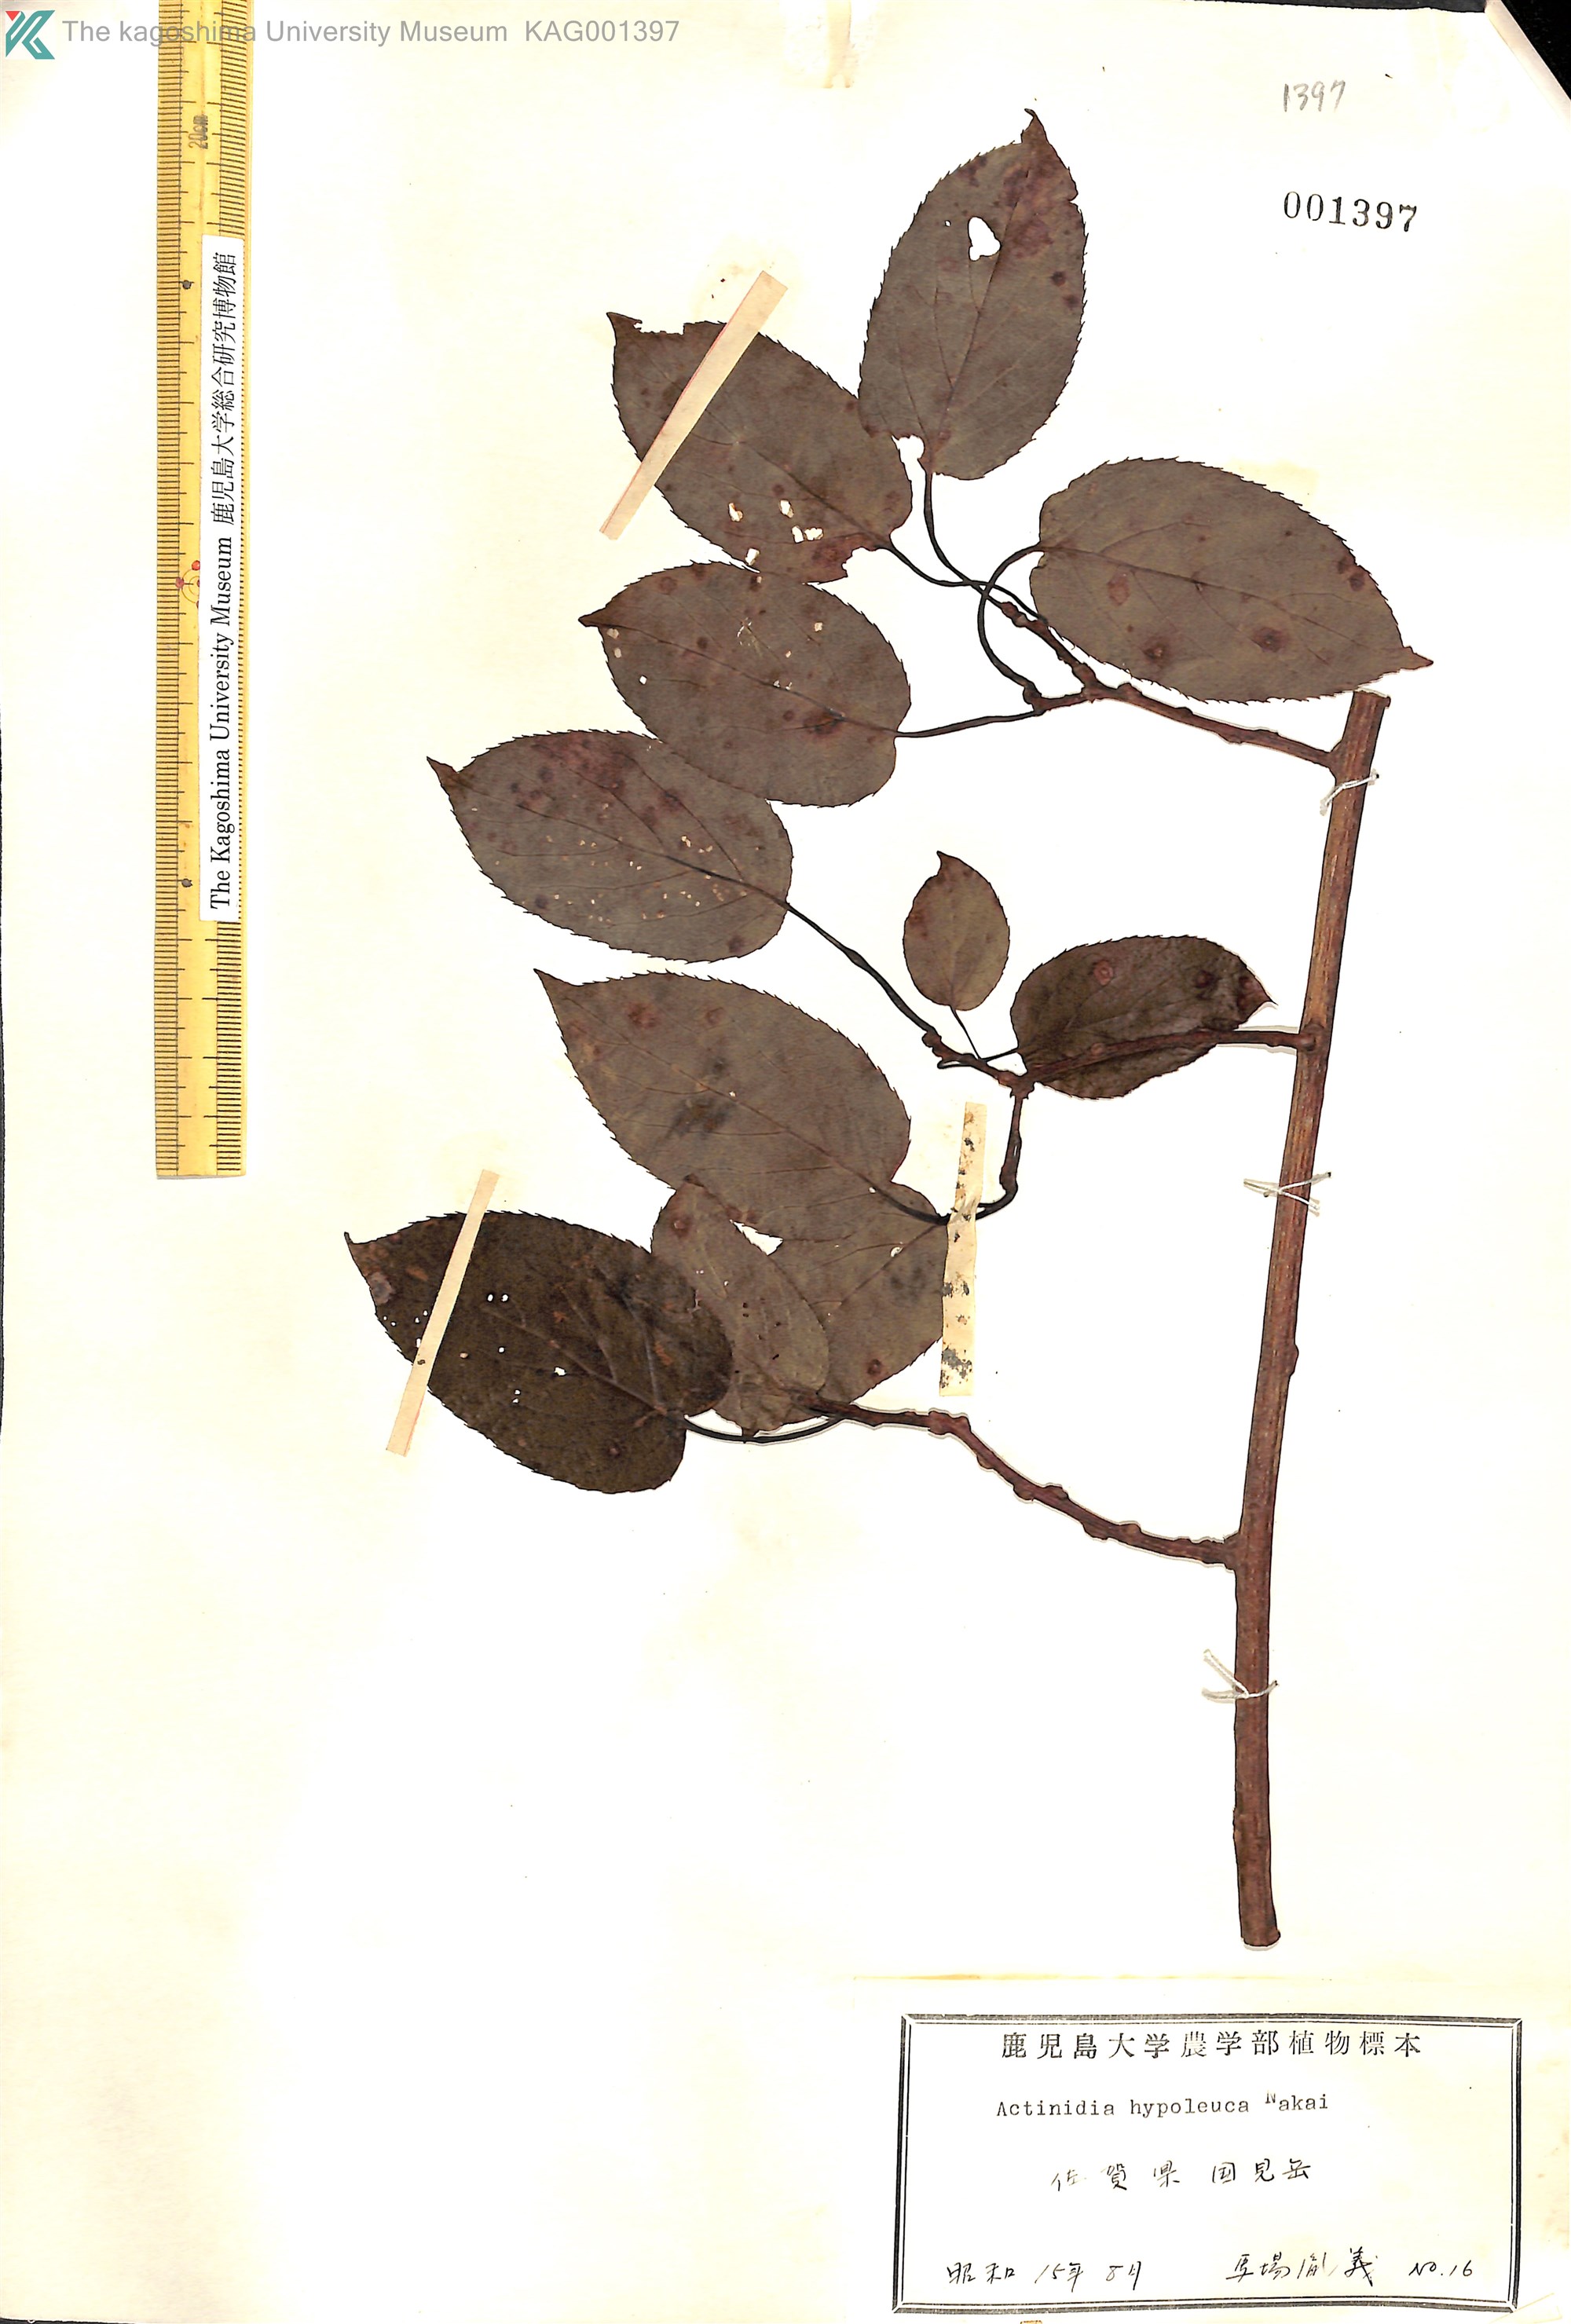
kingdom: Plantae
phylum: Tracheophyta
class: Magnoliopsida
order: Ericales
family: Actinidiaceae
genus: Actinidia
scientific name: Actinidia arguta
